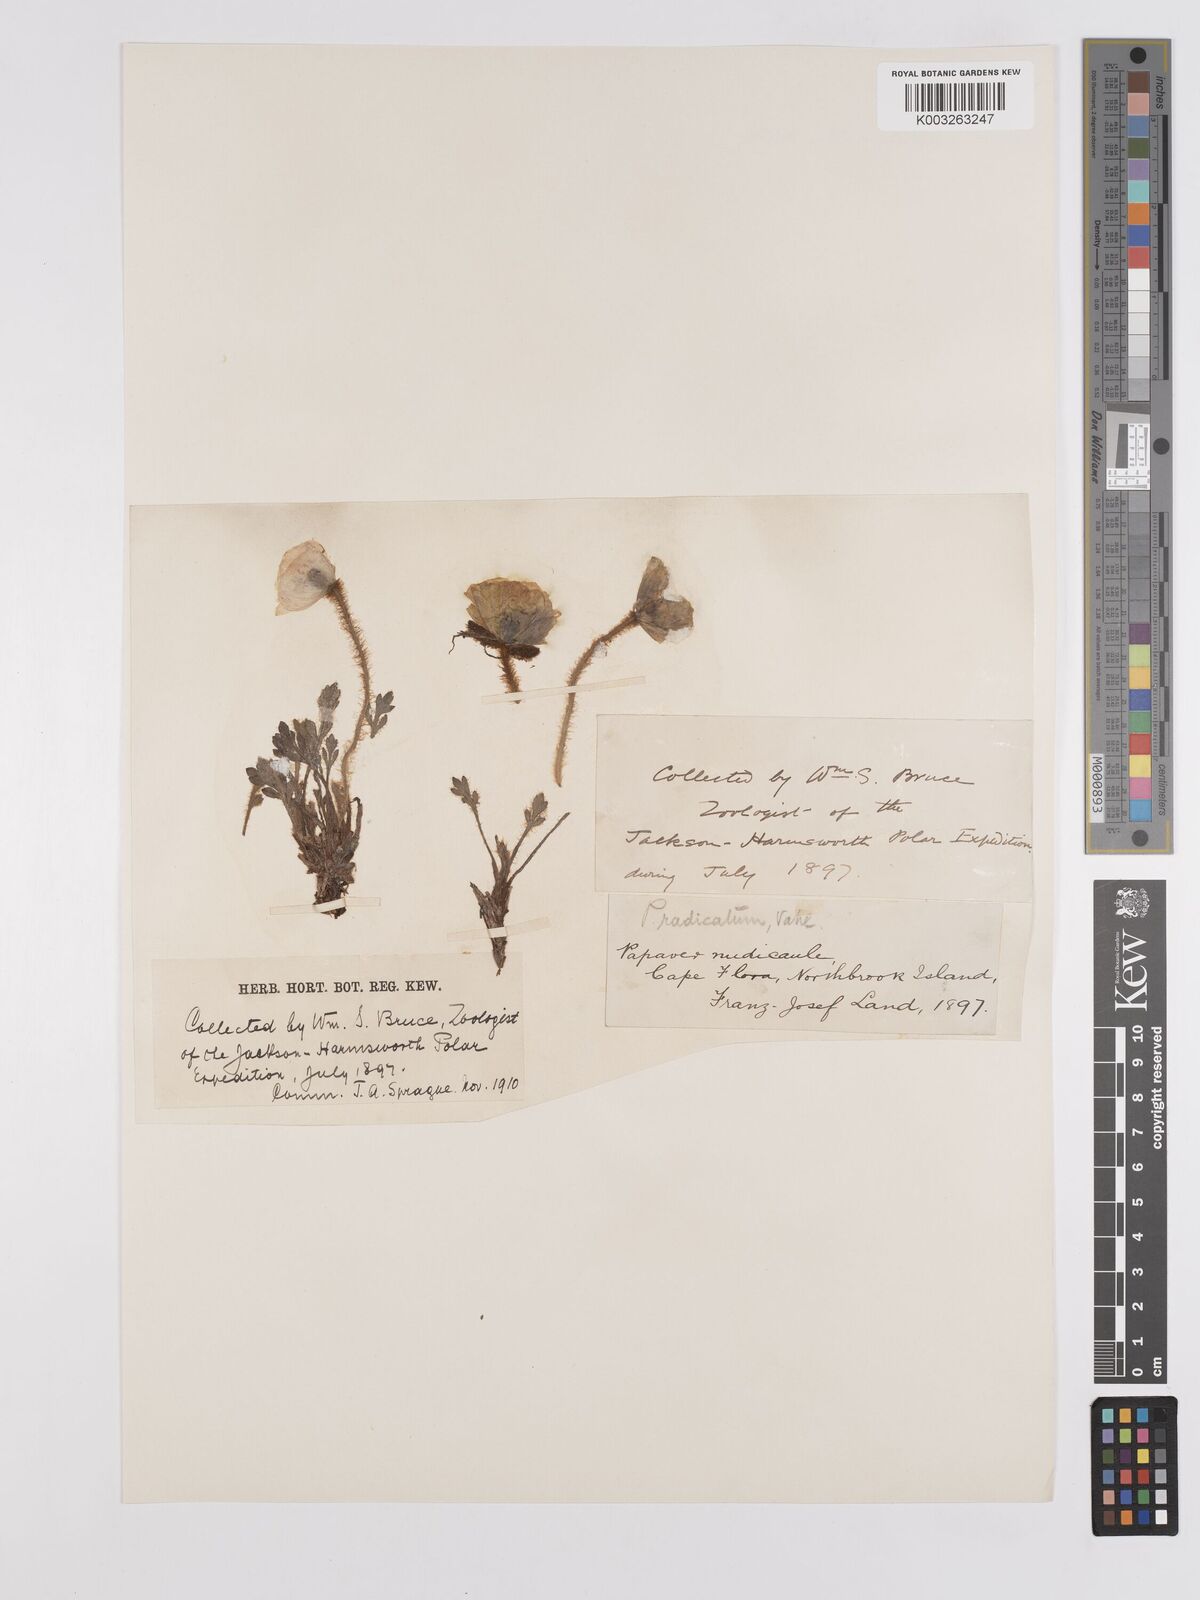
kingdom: Plantae
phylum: Tracheophyta
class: Magnoliopsida
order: Ranunculales
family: Papaveraceae
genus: Papaver
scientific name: Papaver radicatum
